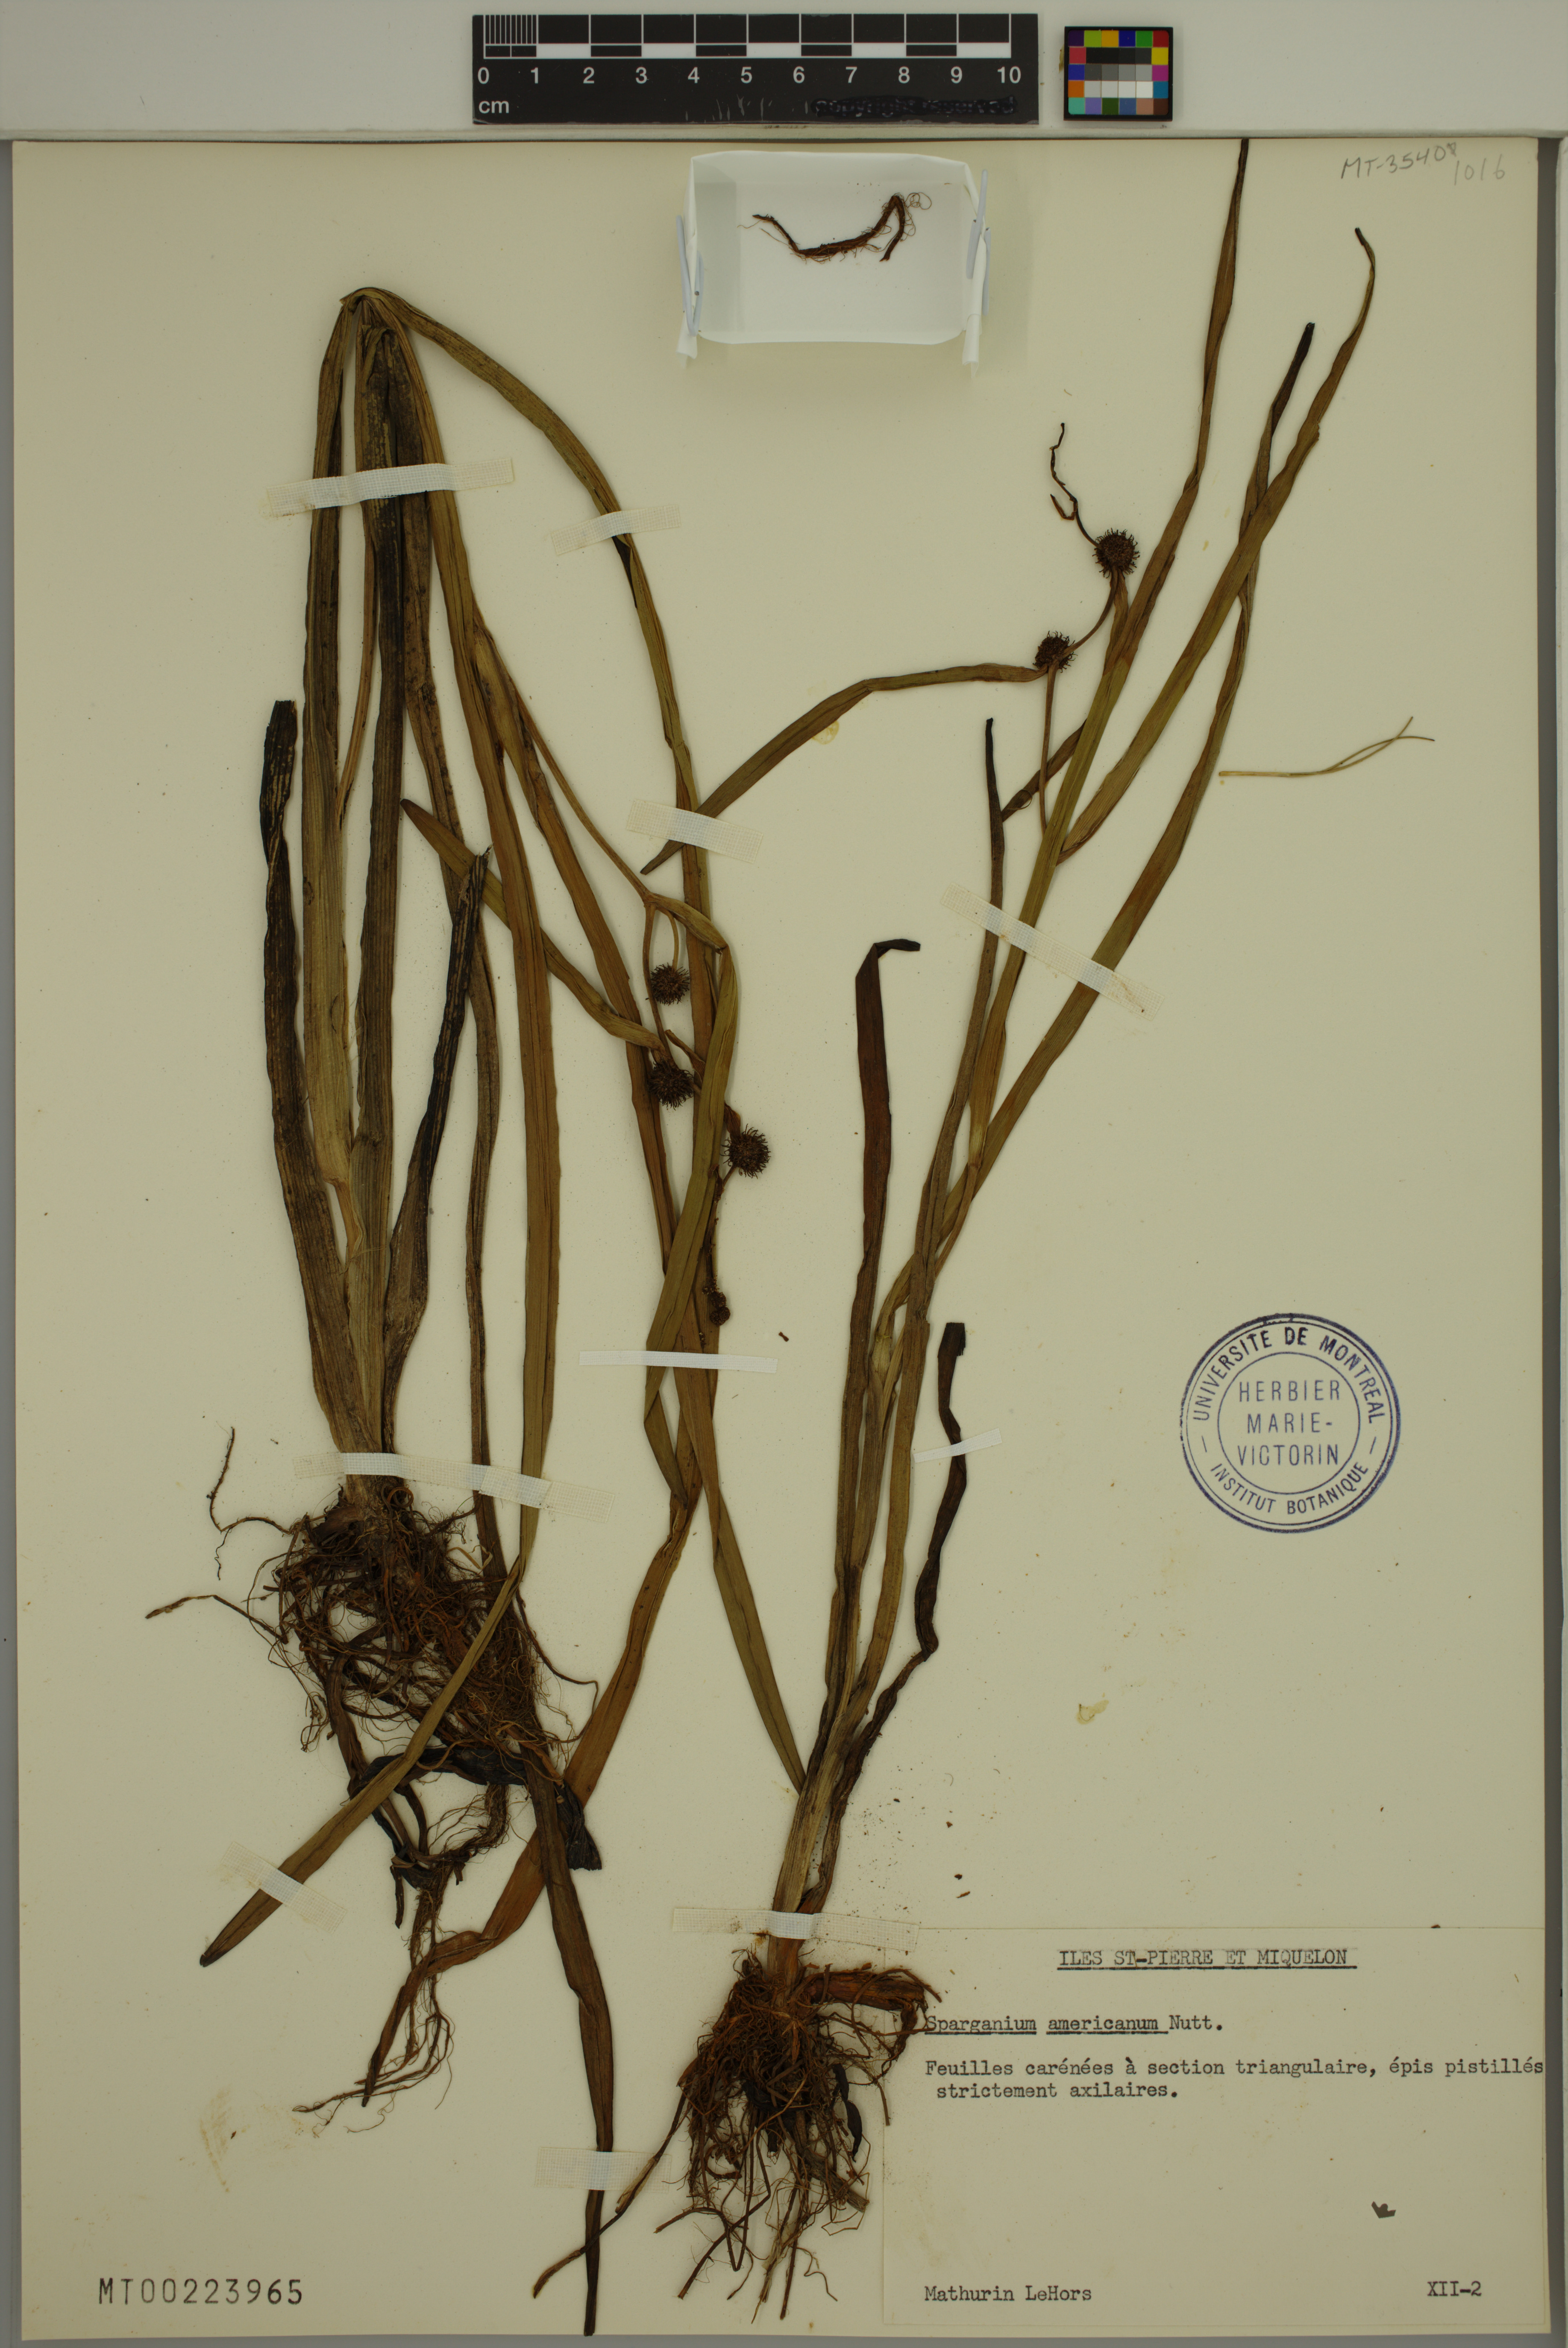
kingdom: Plantae
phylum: Tracheophyta
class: Liliopsida
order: Poales
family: Typhaceae
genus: Sparganium
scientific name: Sparganium americanum
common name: American burreed
